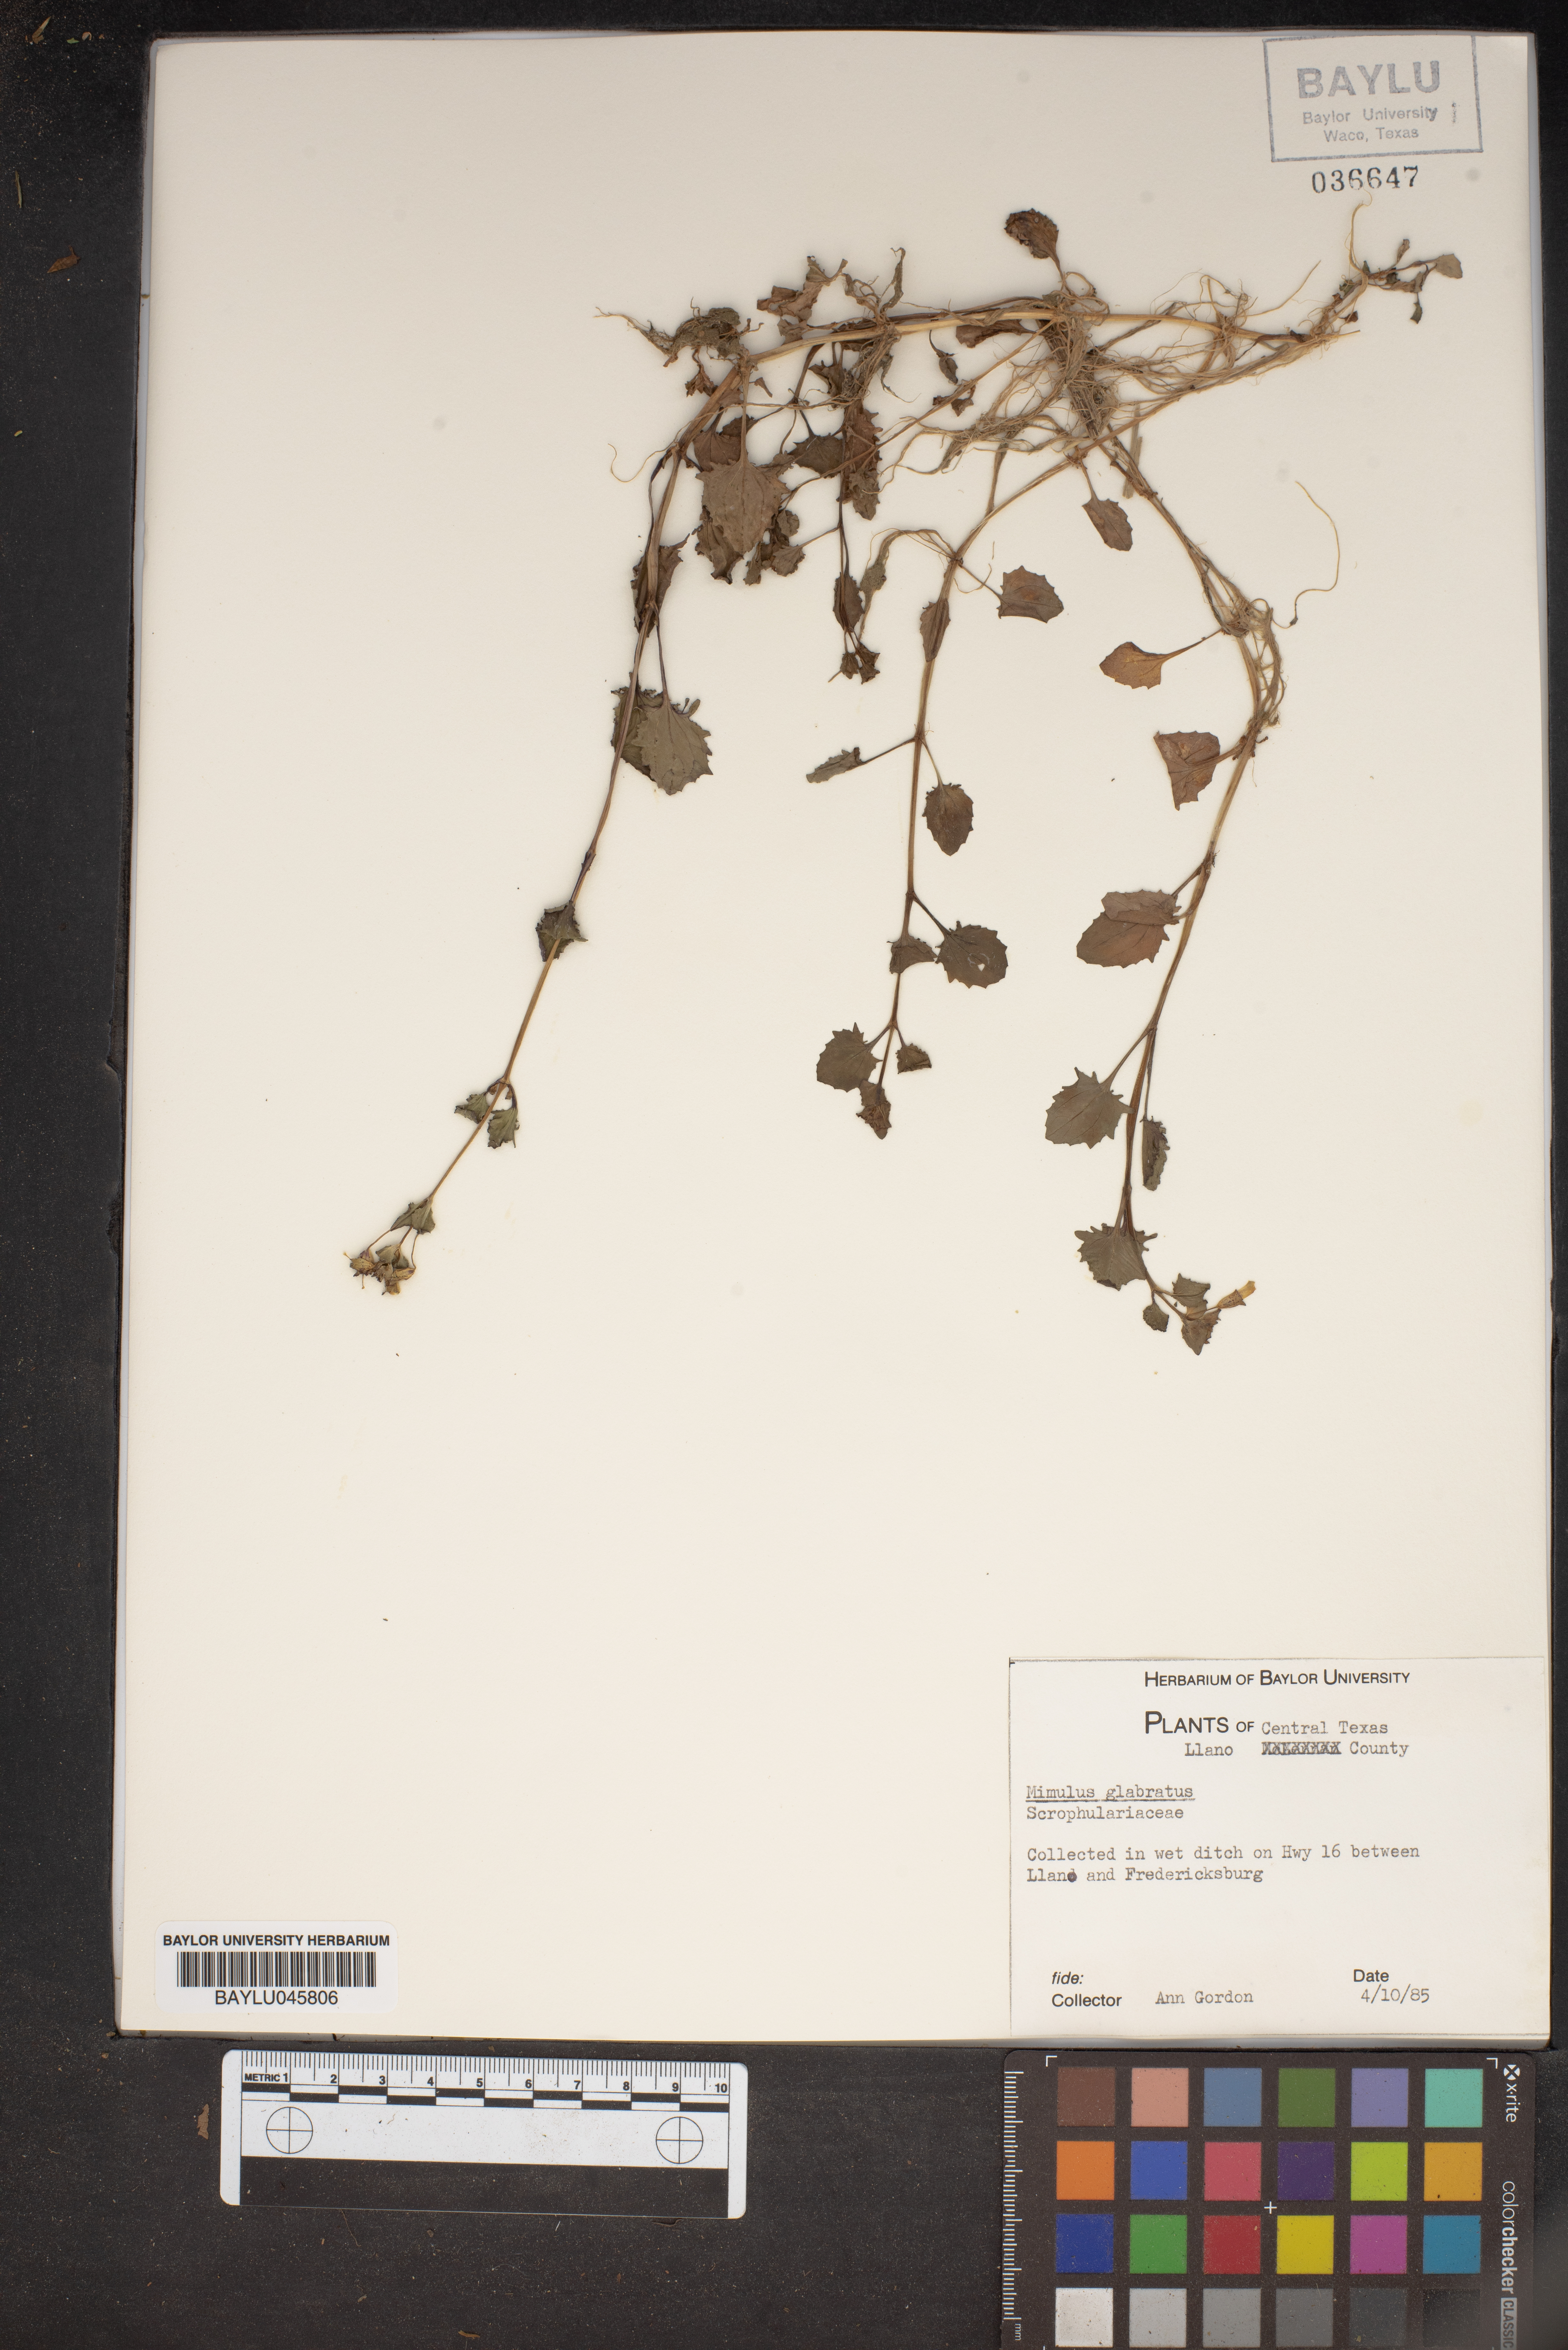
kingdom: Plantae
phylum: Tracheophyta
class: Magnoliopsida
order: Lamiales
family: Phrymaceae
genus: Erythranthe
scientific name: Erythranthe glabrata
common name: Round-leaved monkeyflower
